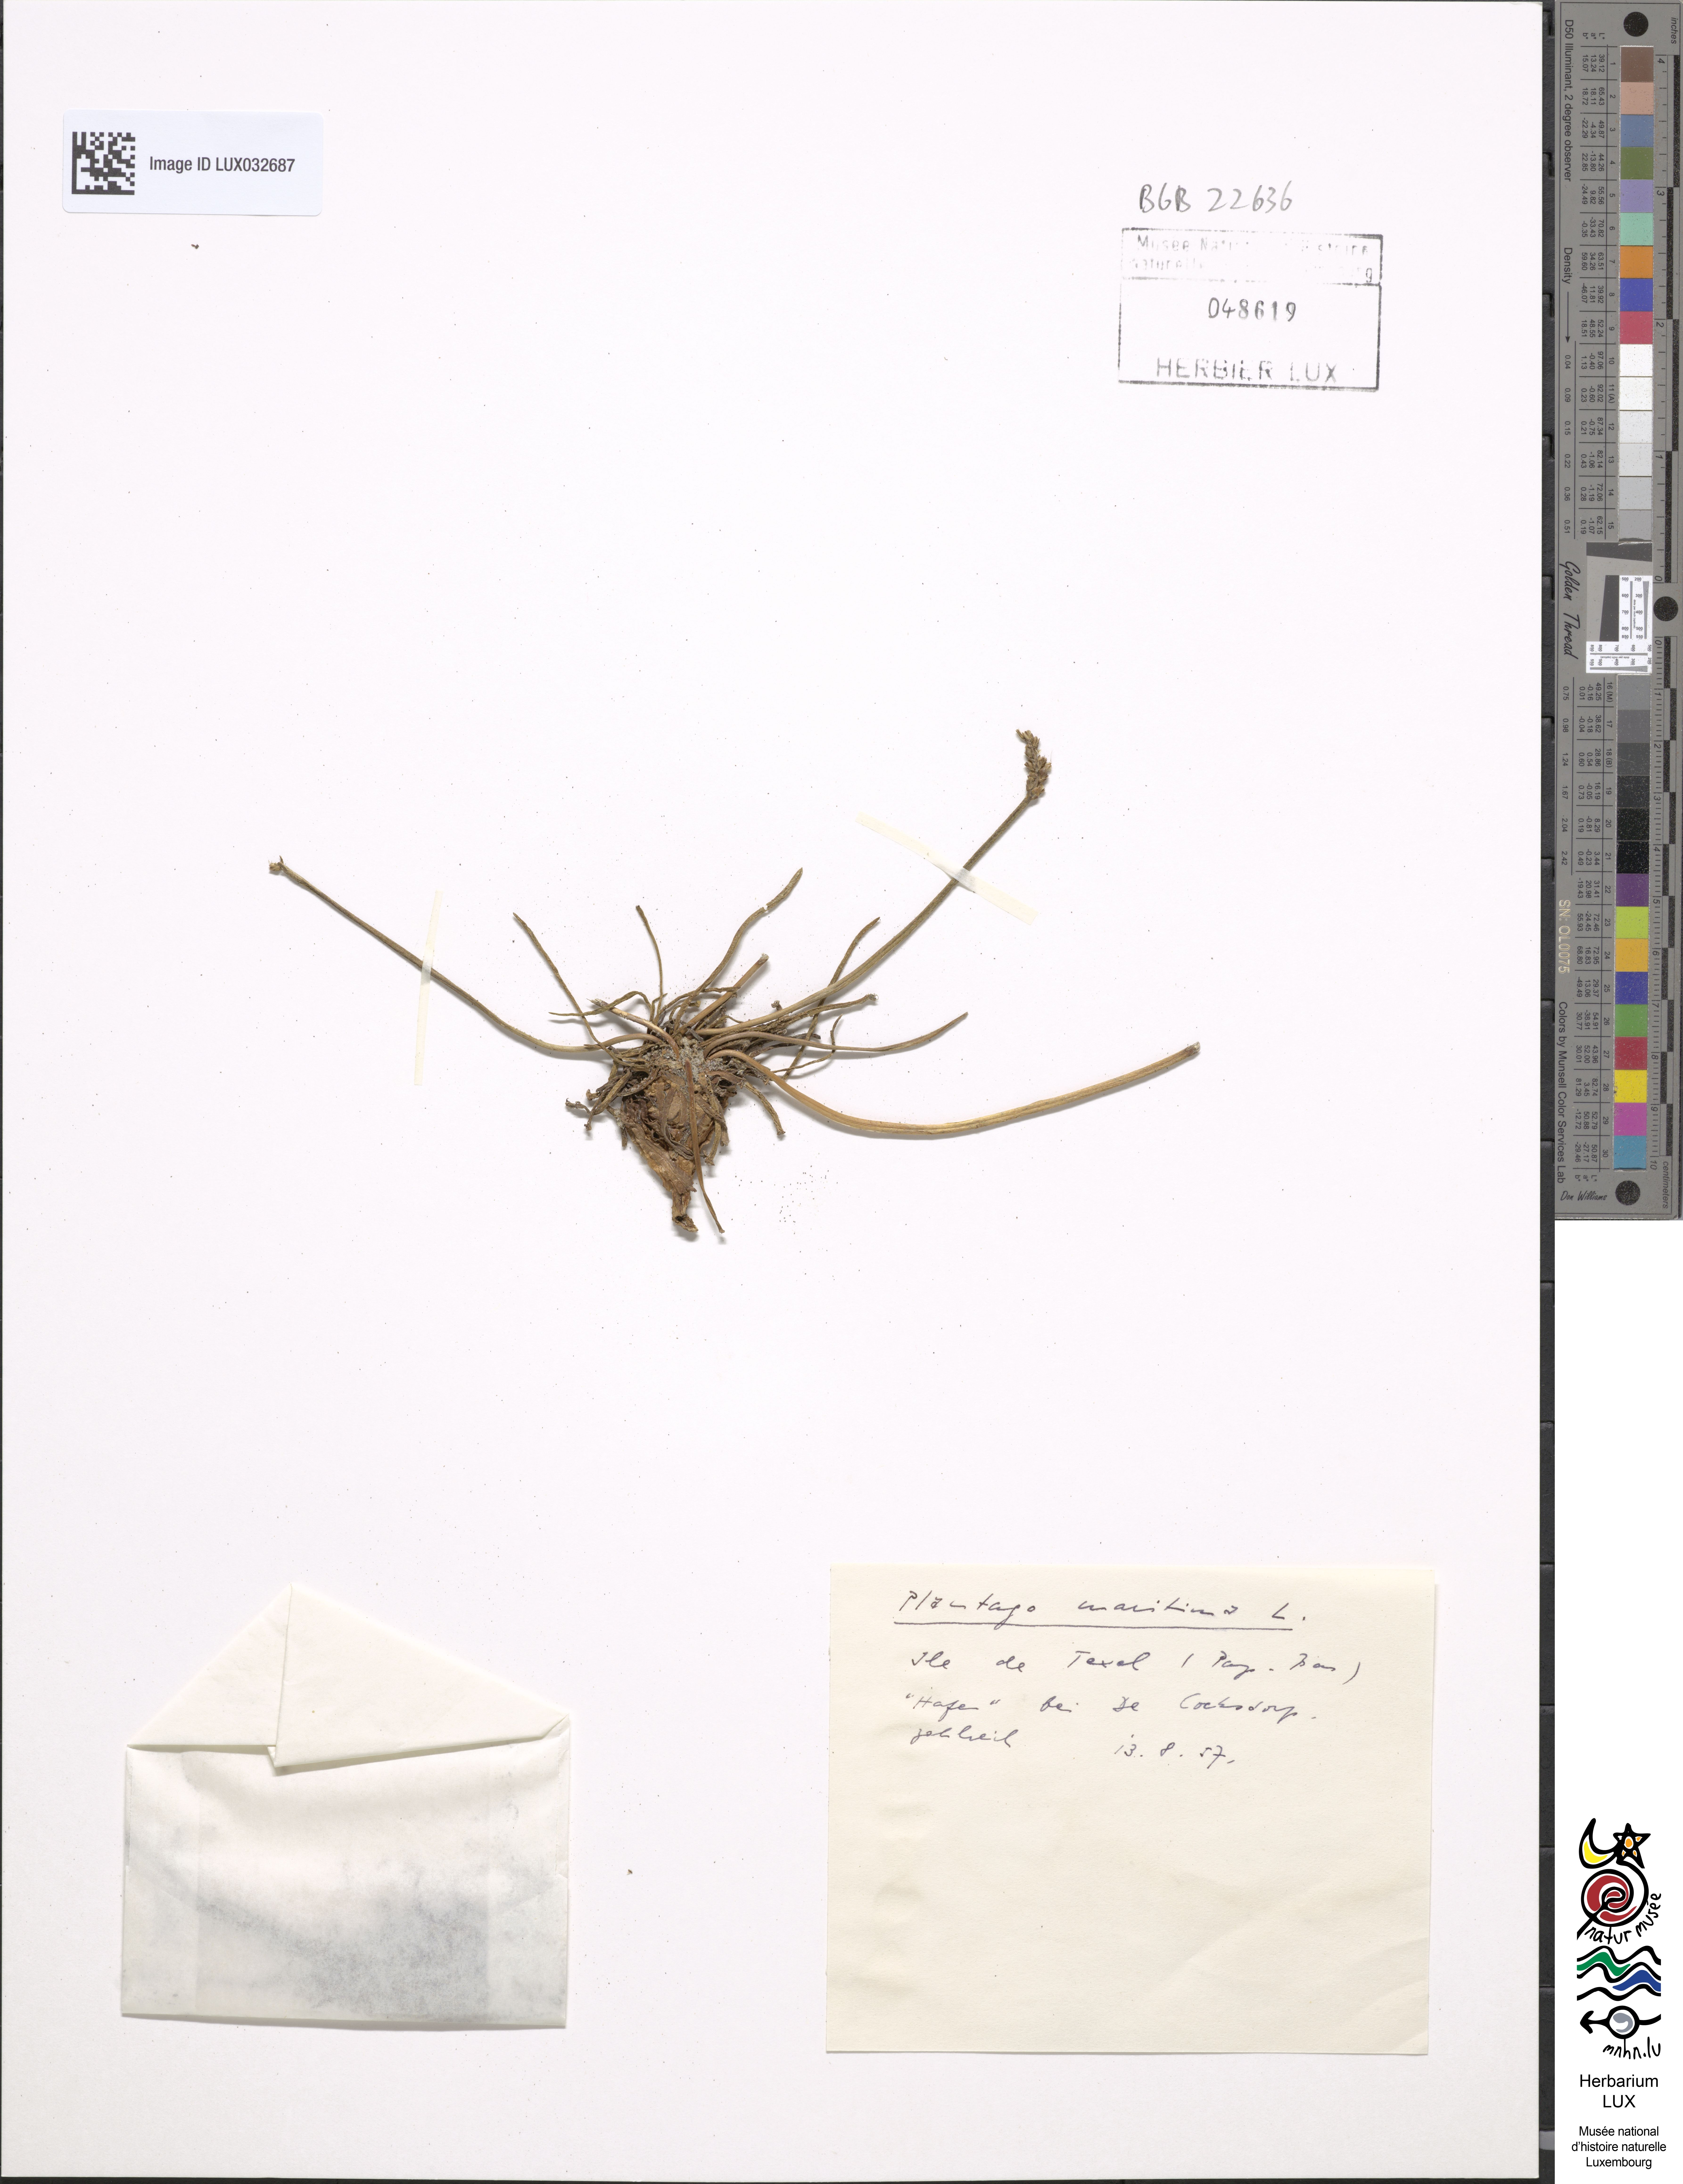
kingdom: Plantae
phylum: Tracheophyta
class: Magnoliopsida
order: Lamiales
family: Plantaginaceae
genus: Plantago
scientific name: Plantago maritima
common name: Sea plantain
